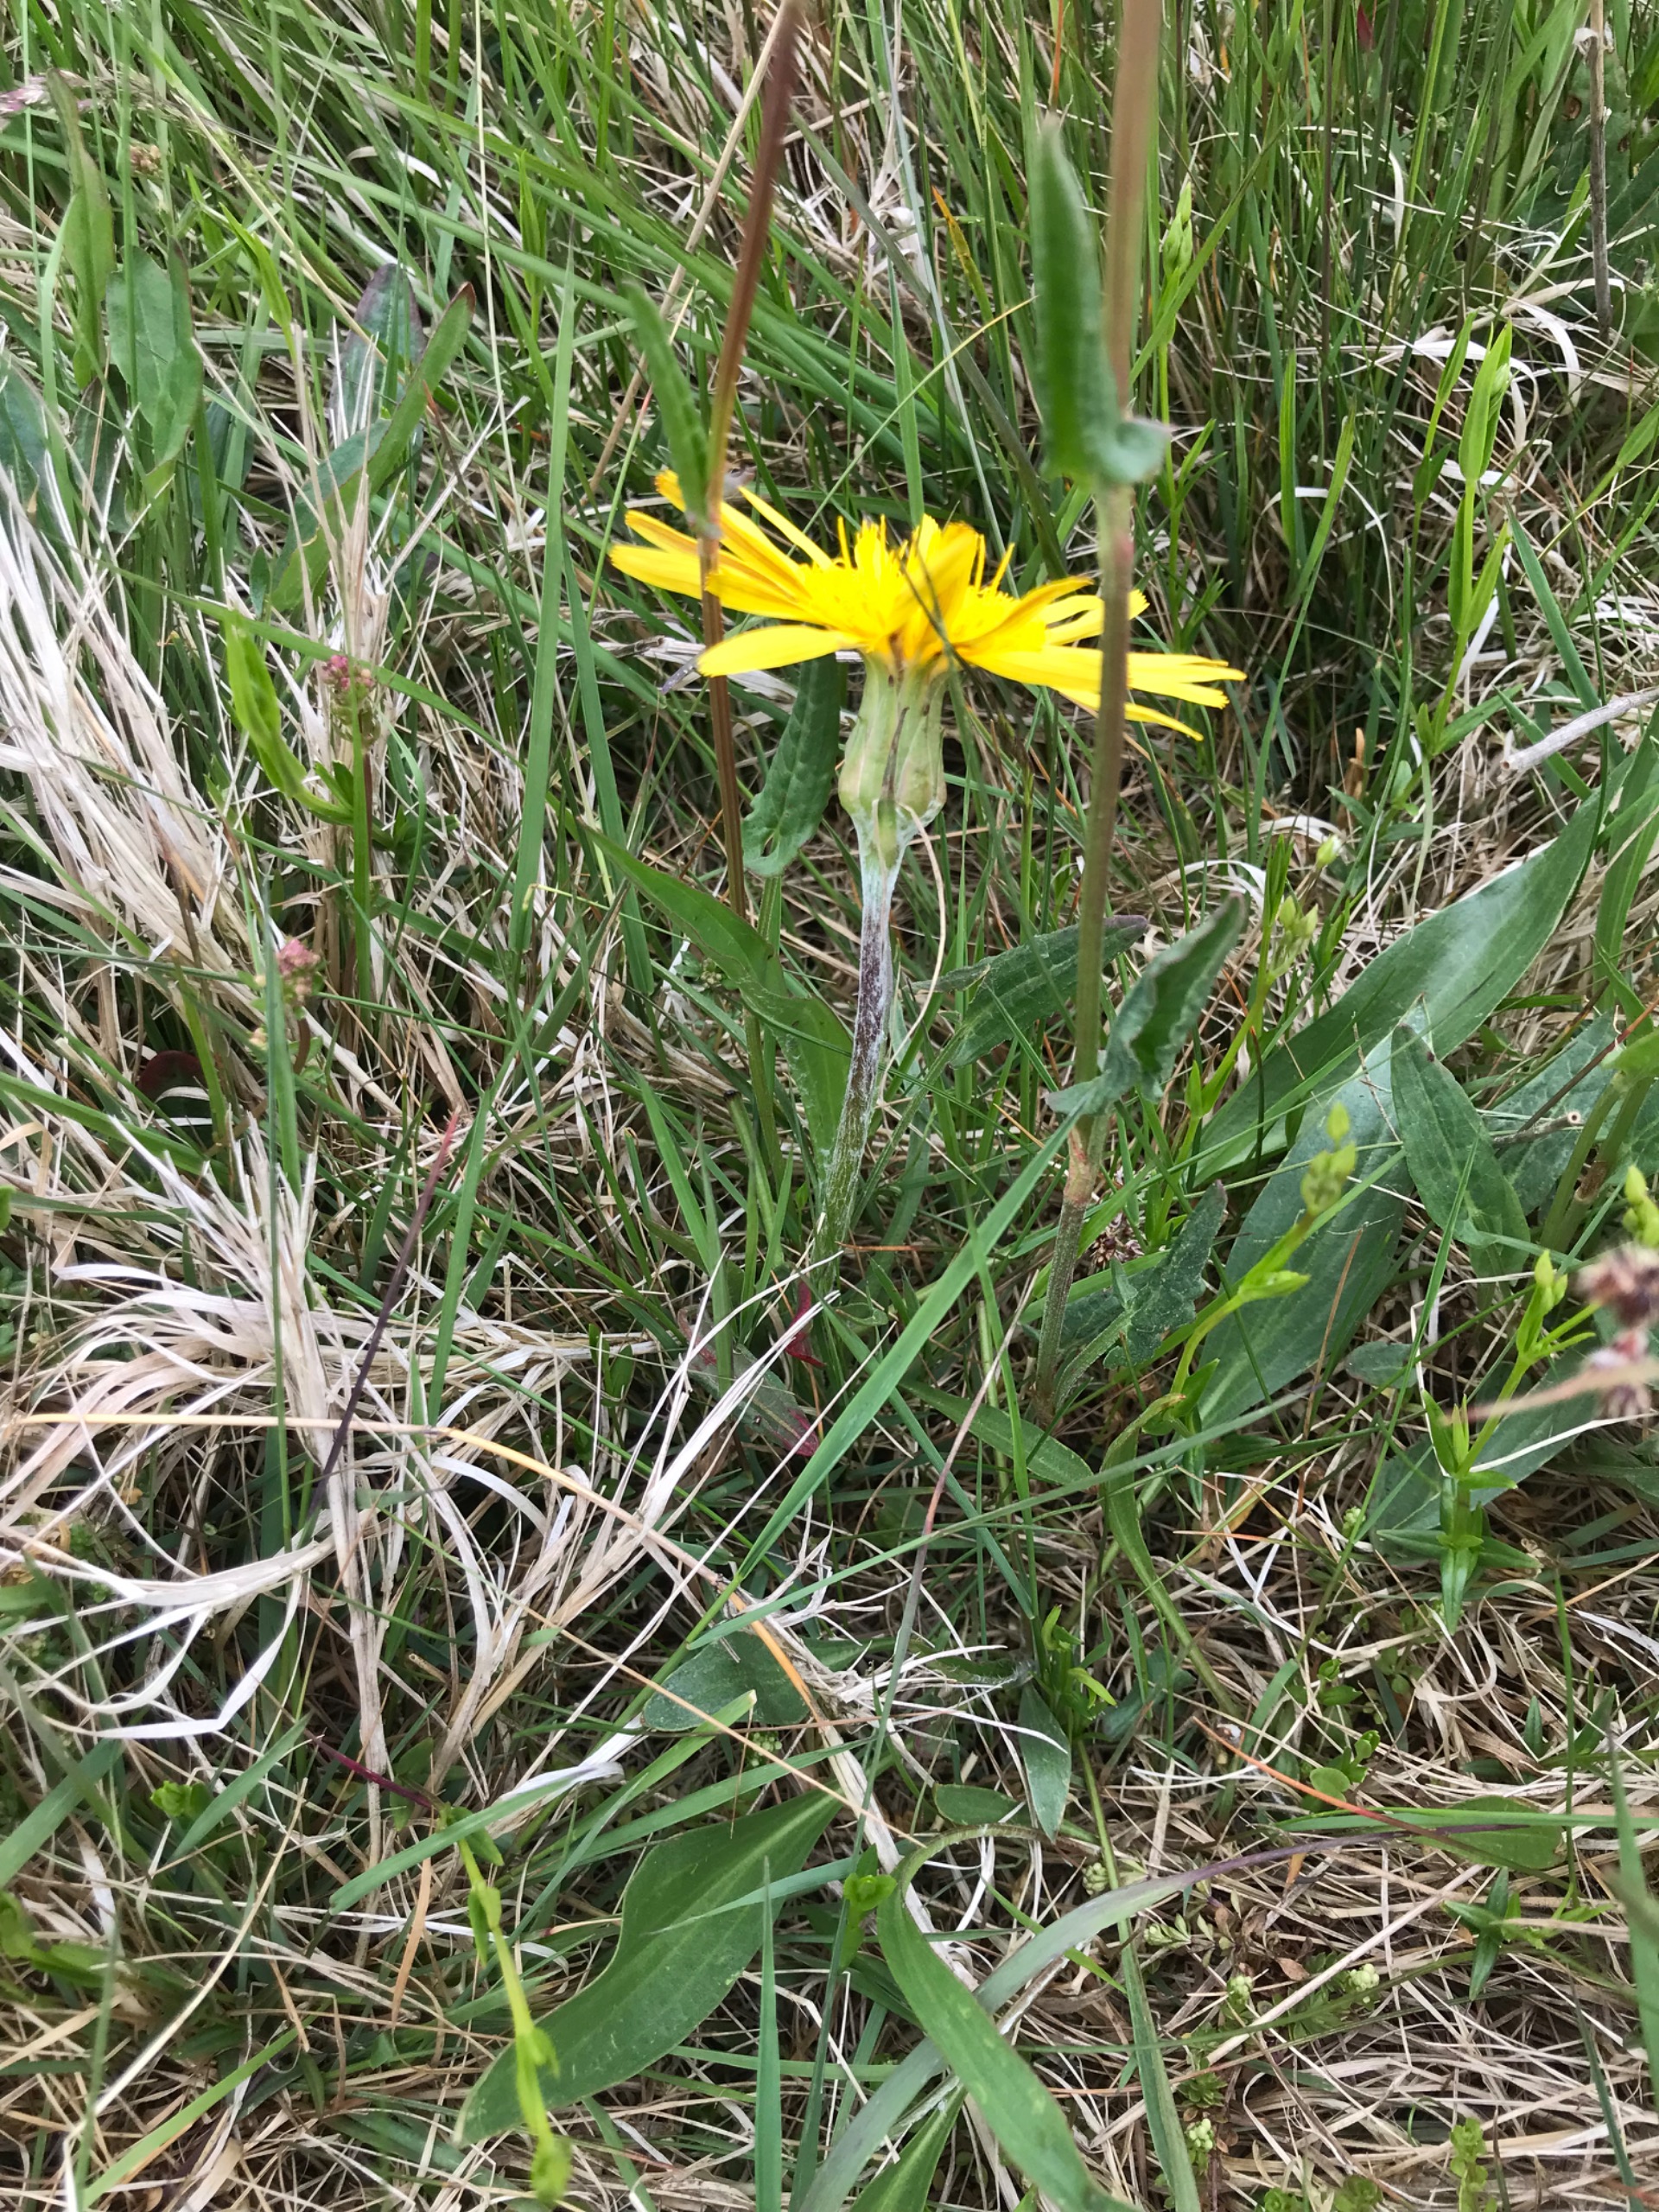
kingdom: Plantae
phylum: Tracheophyta
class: Magnoliopsida
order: Asterales
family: Asteraceae
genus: Scorzonera
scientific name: Scorzonera humilis
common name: Lav skorsoner
